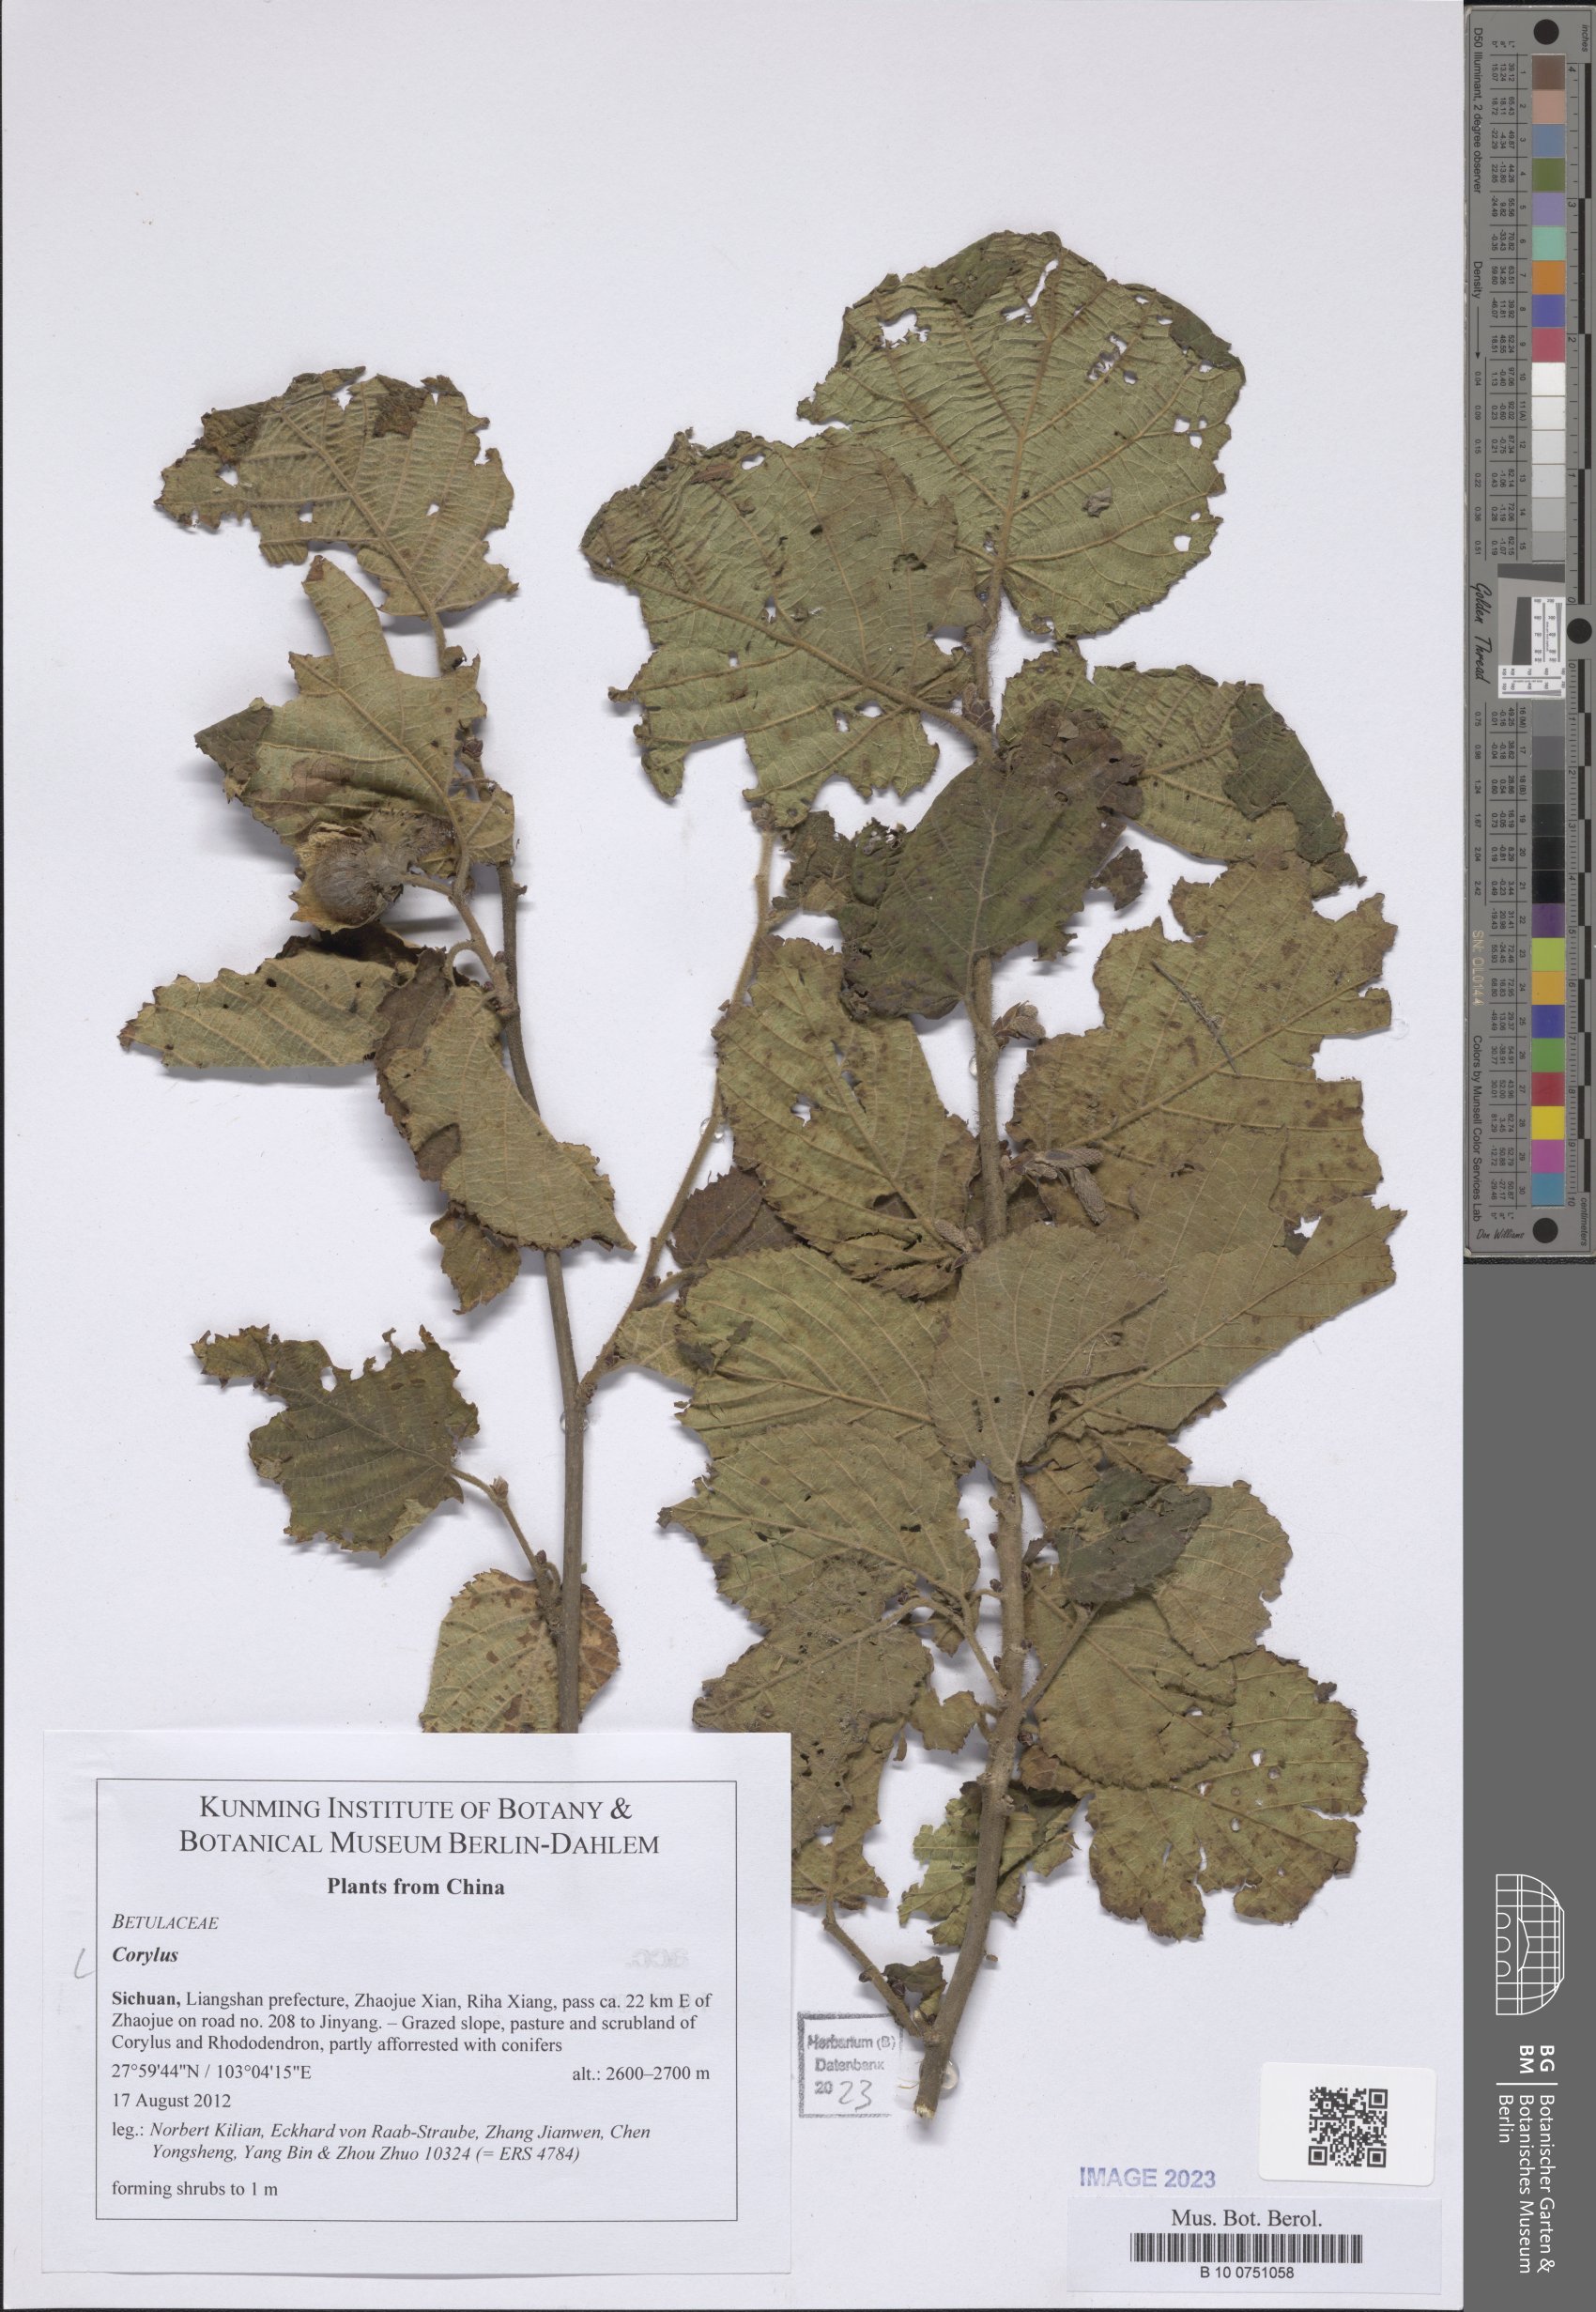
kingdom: Plantae
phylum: Tracheophyta
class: Magnoliopsida
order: Fagales
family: Betulaceae
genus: Corylus
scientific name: Corylus
